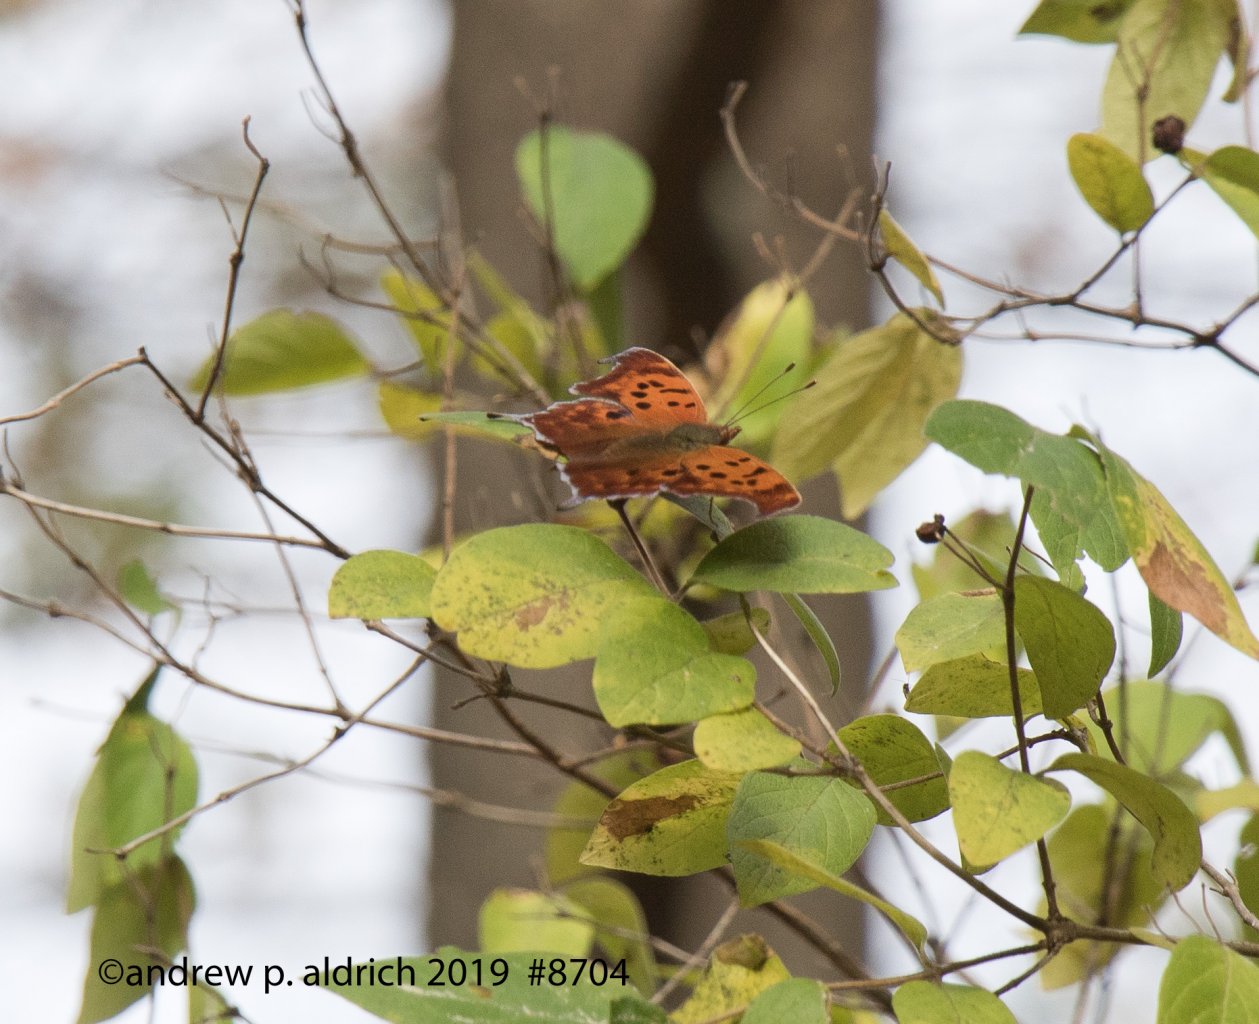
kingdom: Animalia
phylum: Arthropoda
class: Insecta
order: Lepidoptera
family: Nymphalidae
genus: Polygonia
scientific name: Polygonia interrogationis
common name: Question Mark
